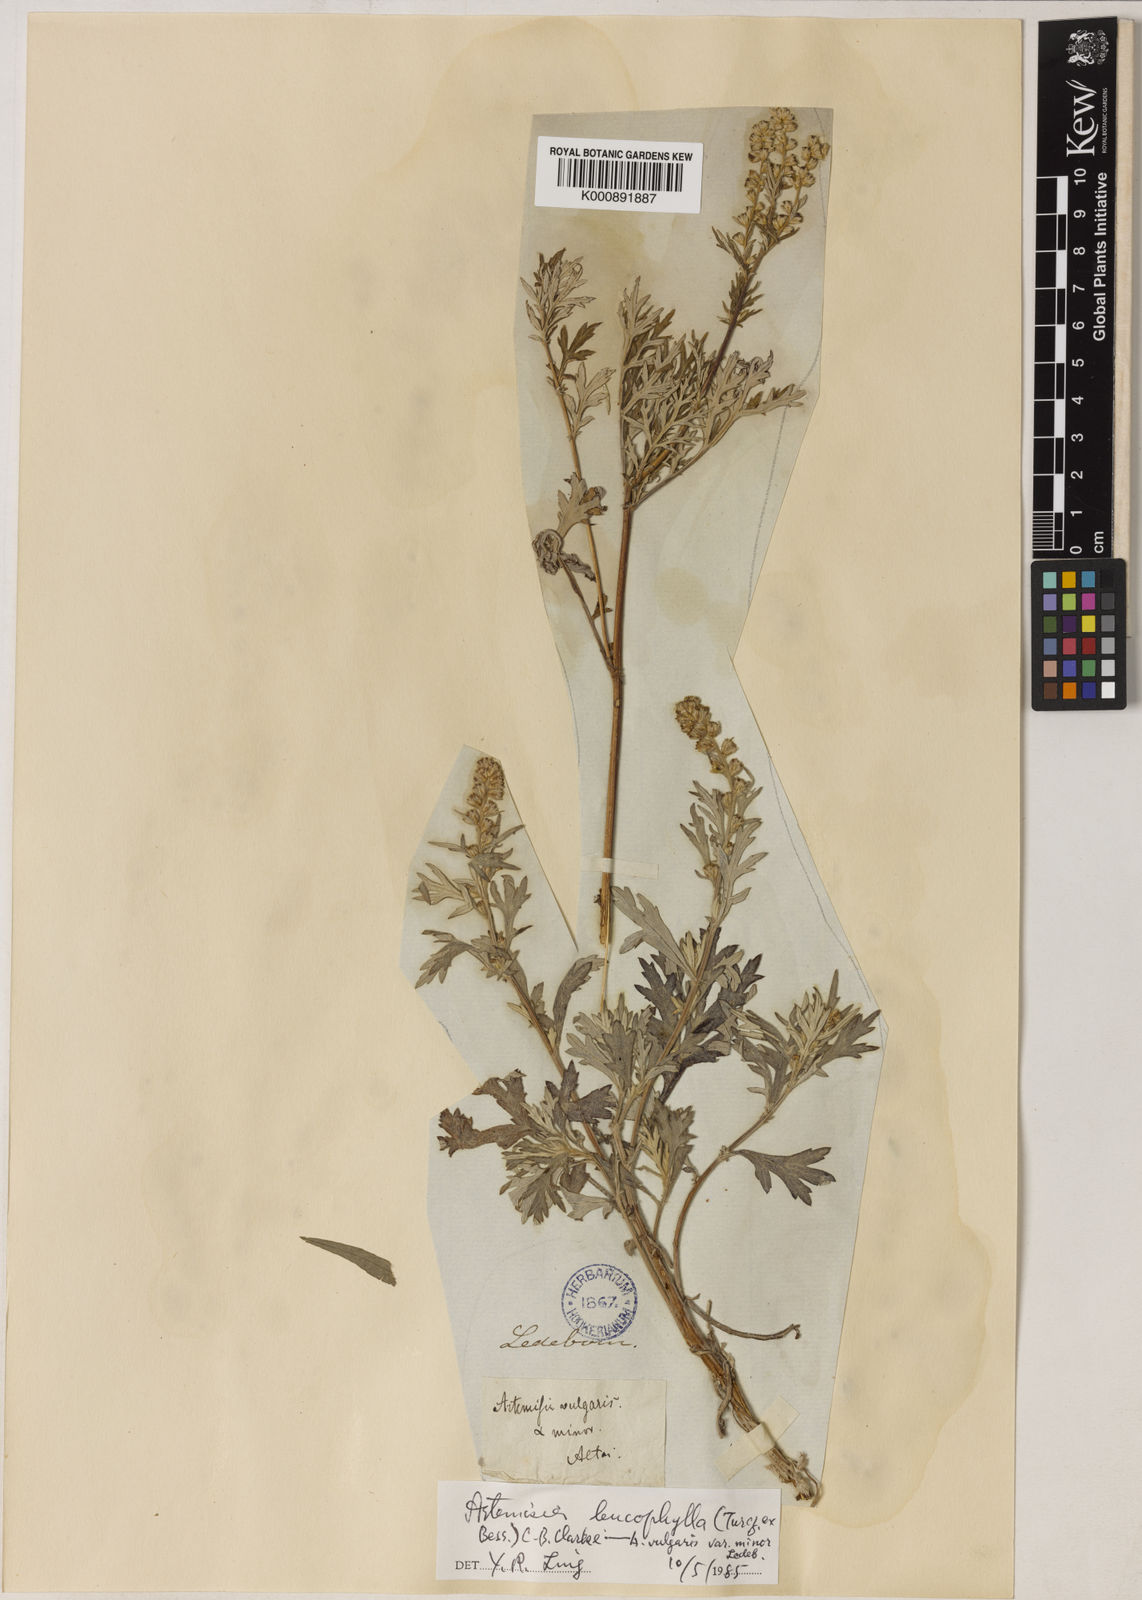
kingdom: Plantae
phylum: Tracheophyta
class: Magnoliopsida
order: Asterales
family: Asteraceae
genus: Artemisia
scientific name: Artemisia leucophylla
